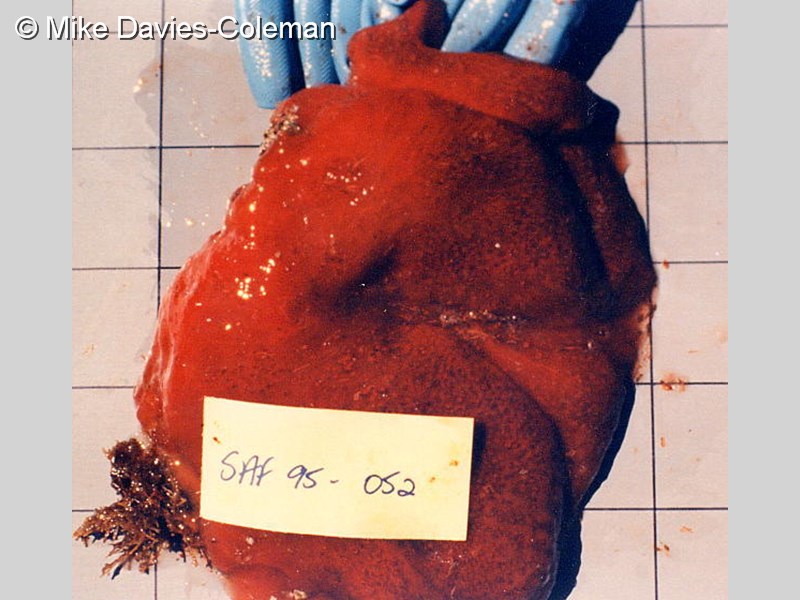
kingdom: Animalia
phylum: Chordata
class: Ascidiacea
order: Aplousobranchia
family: Pseudodistomidae
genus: Pseudodistoma
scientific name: Pseudodistoma
